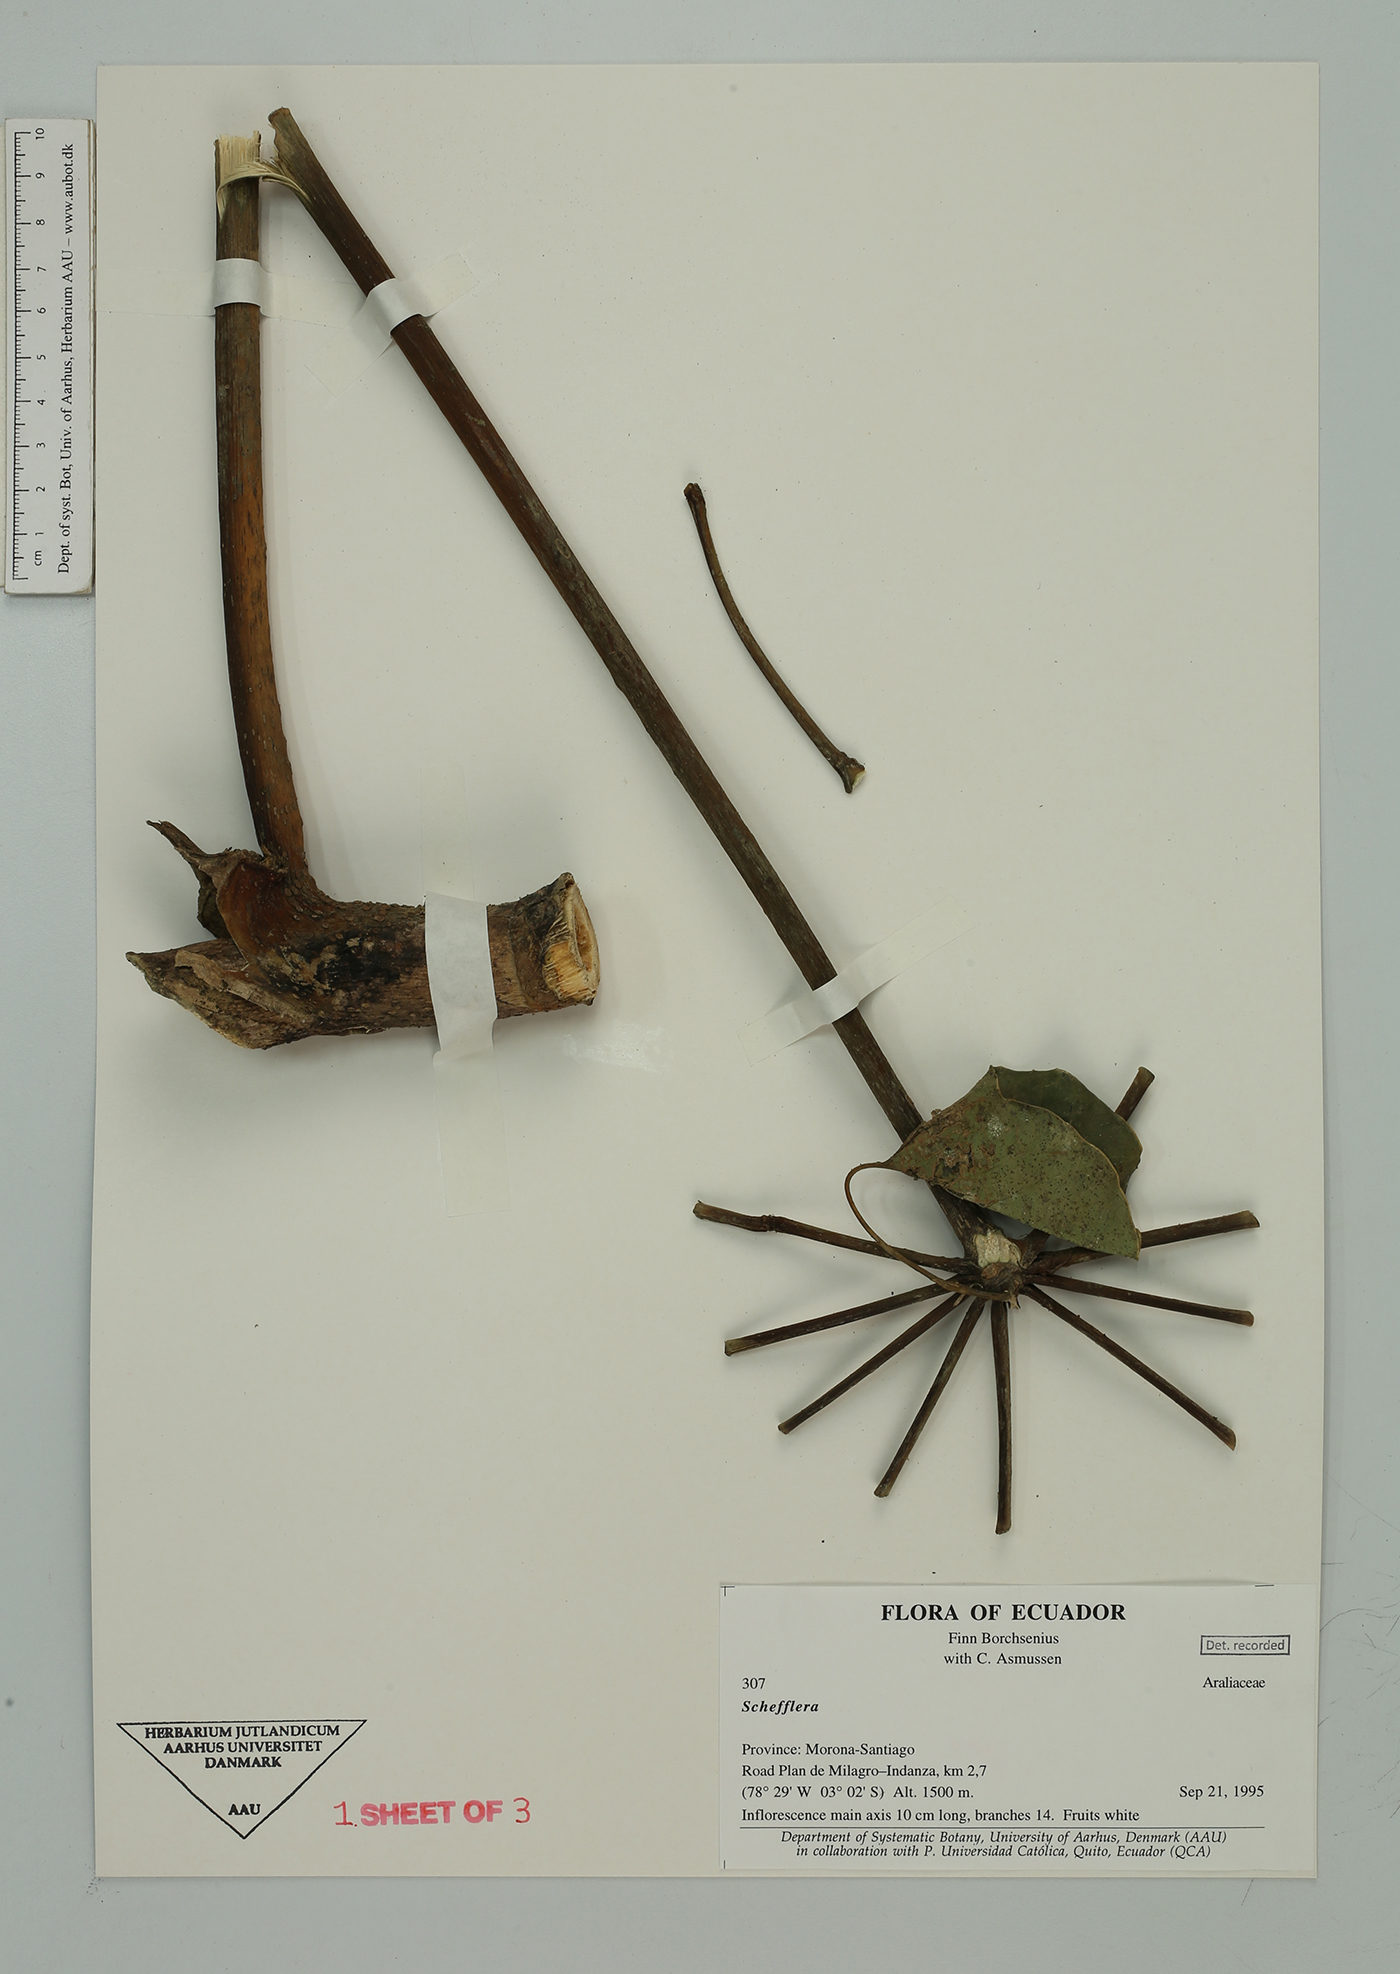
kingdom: Plantae
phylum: Tracheophyta
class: Magnoliopsida
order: Apiales
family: Araliaceae
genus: Sciodaphyllum
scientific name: Sciodaphyllum sphaerocoma
